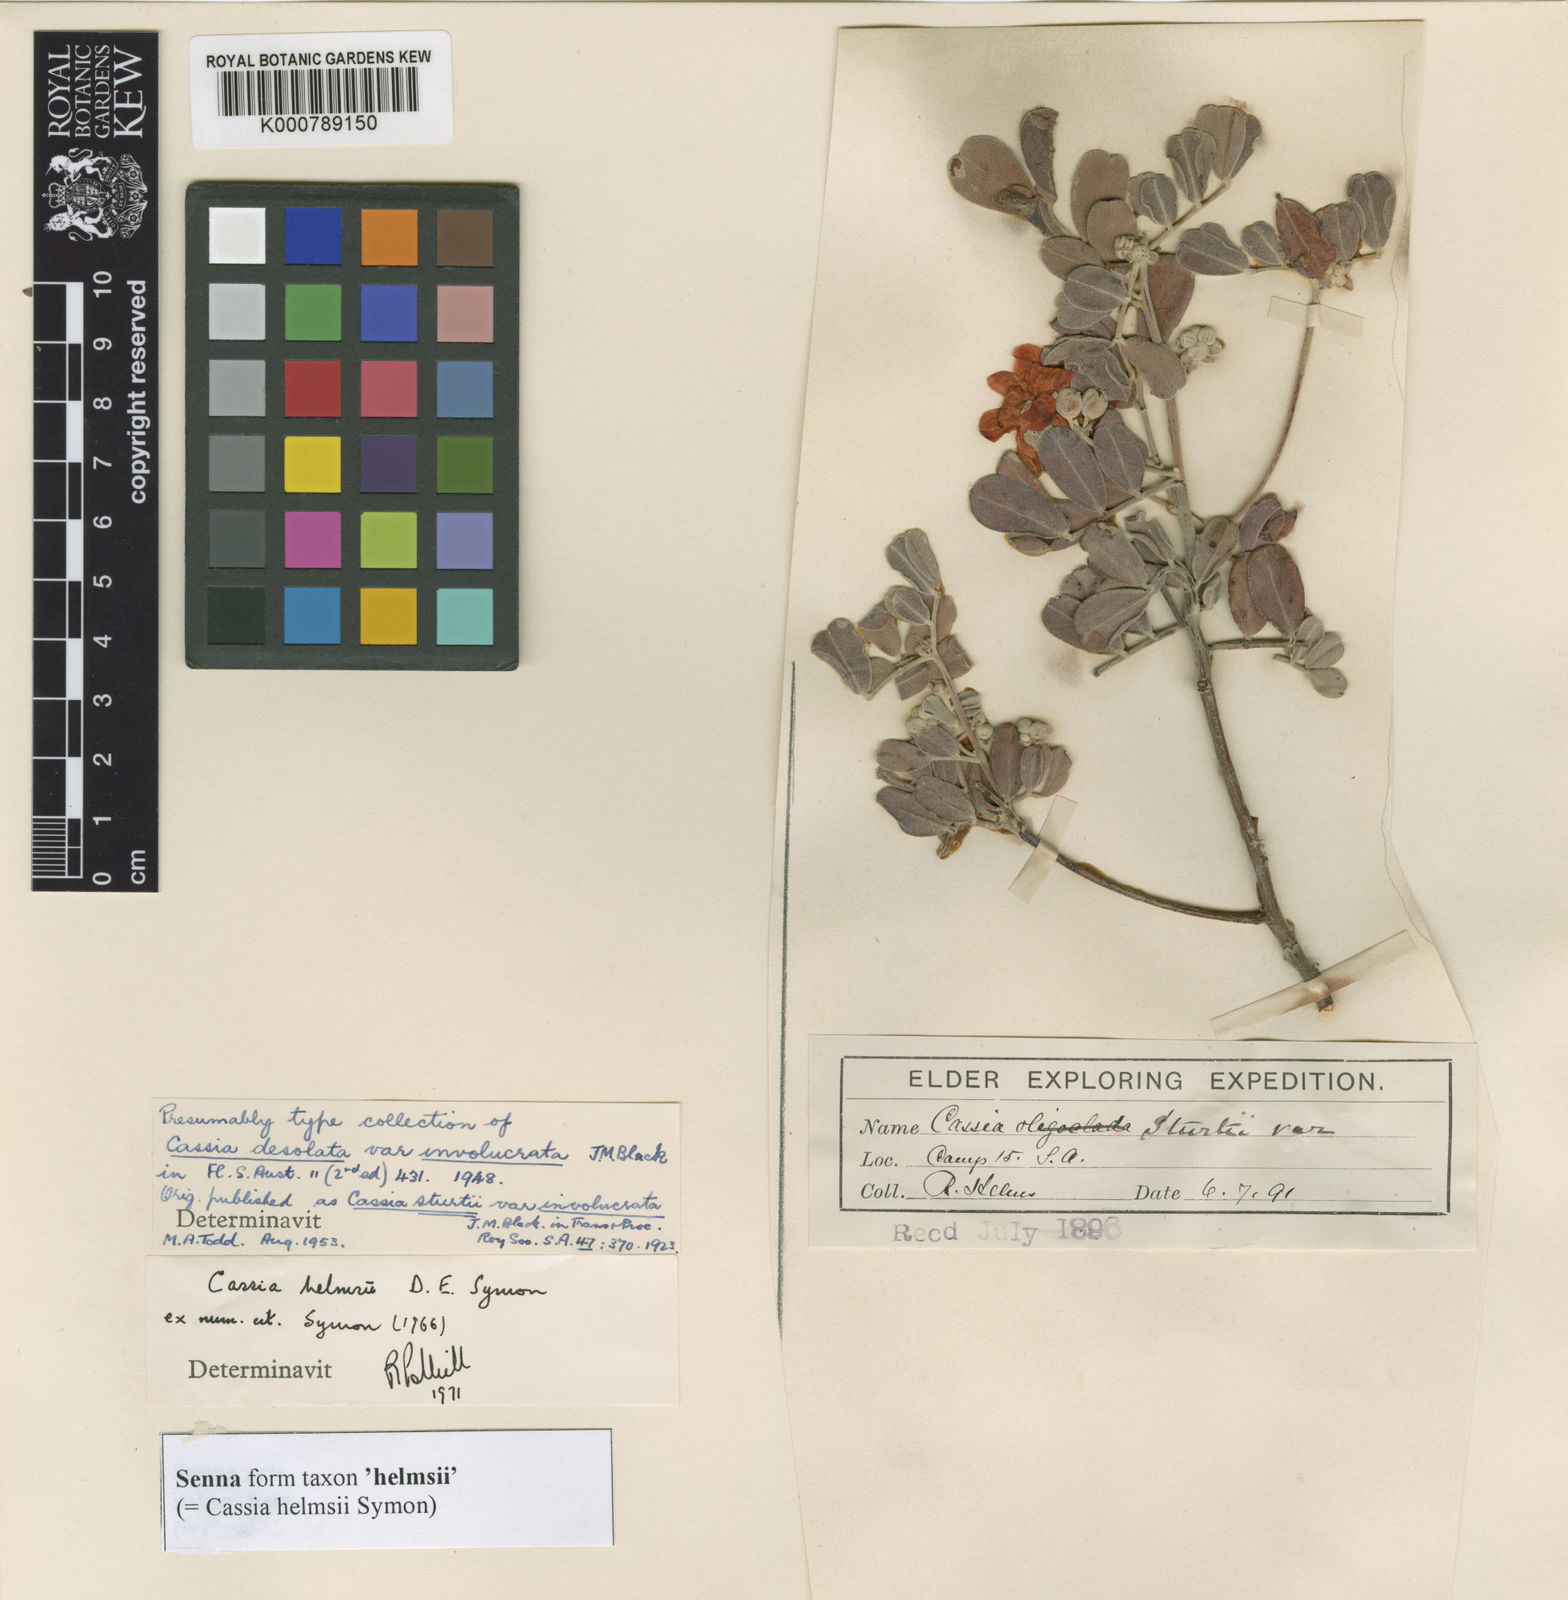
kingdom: Plantae
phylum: Tracheophyta
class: Magnoliopsida
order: Fabales
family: Fabaceae
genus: Senna
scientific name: Senna
